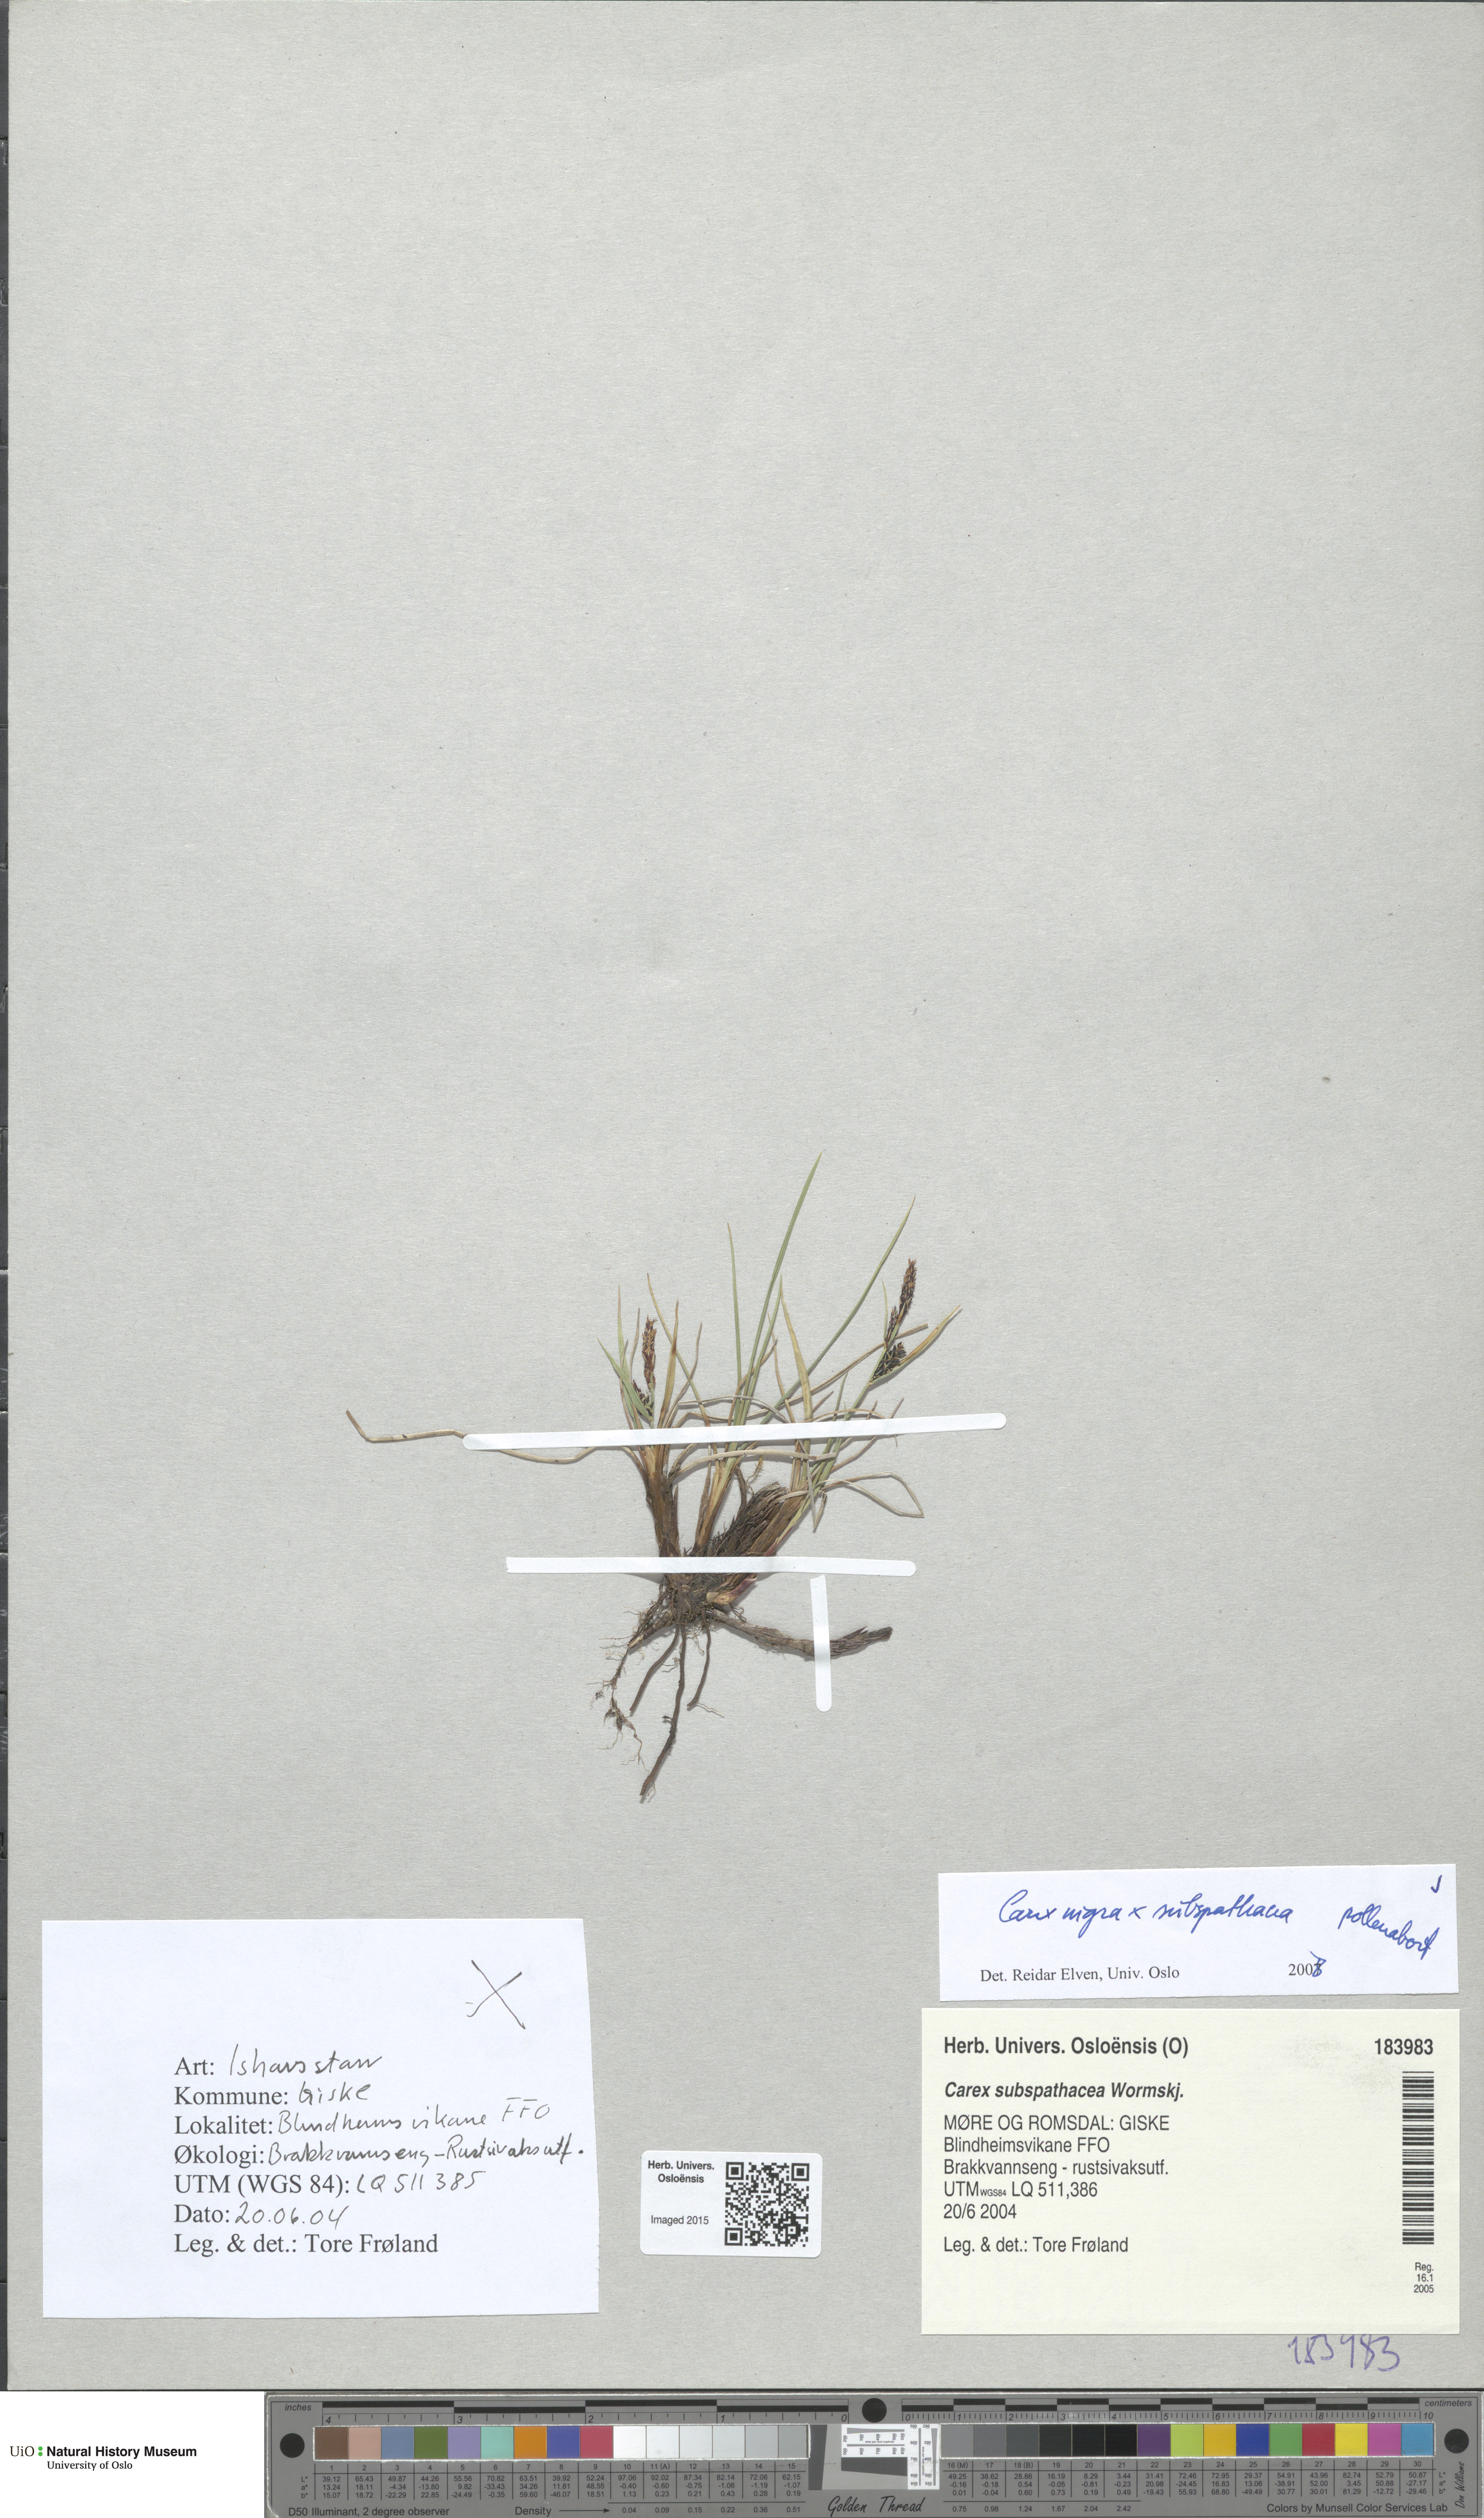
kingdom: Plantae
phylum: Tracheophyta
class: Liliopsida
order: Poales
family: Cyperaceae
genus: Carex
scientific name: Carex
